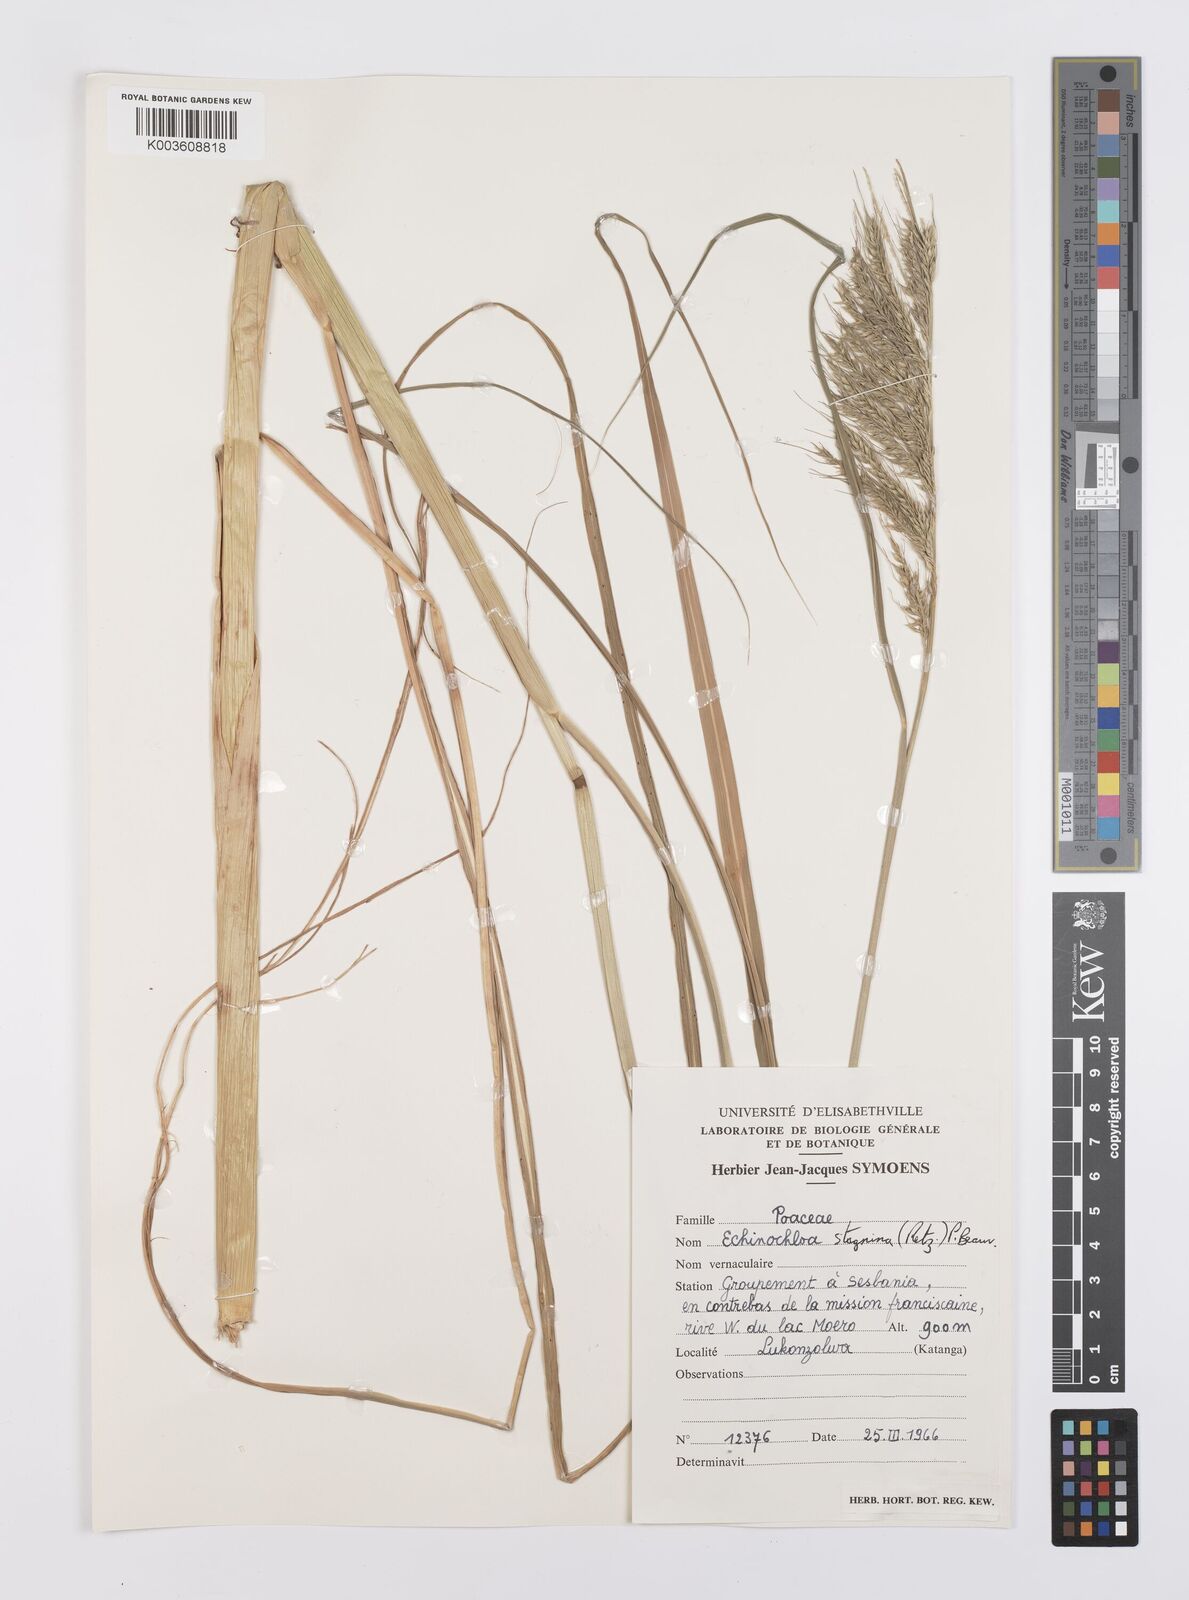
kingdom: Plantae
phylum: Tracheophyta
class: Liliopsida
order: Poales
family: Poaceae
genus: Echinochloa
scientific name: Echinochloa stagnina
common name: Burgu grass
